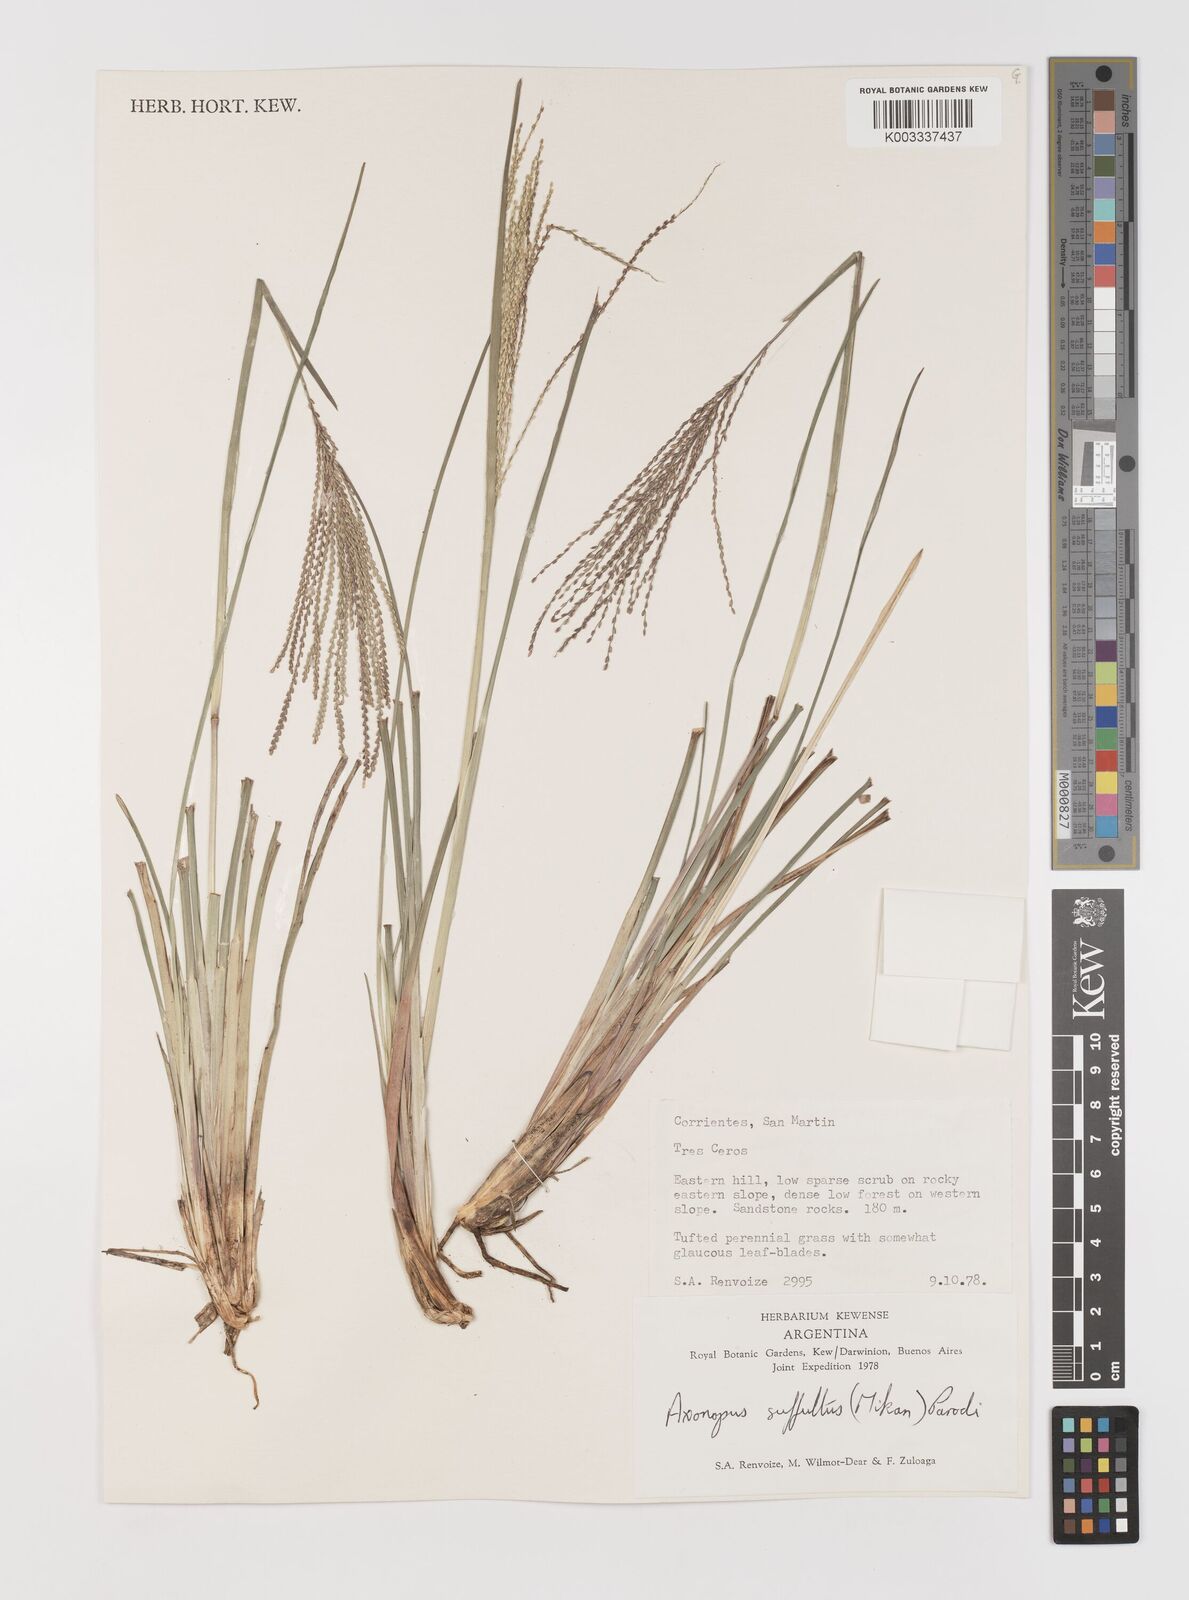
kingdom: Plantae
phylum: Tracheophyta
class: Liliopsida
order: Poales
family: Poaceae
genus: Axonopus
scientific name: Axonopus suffultus
